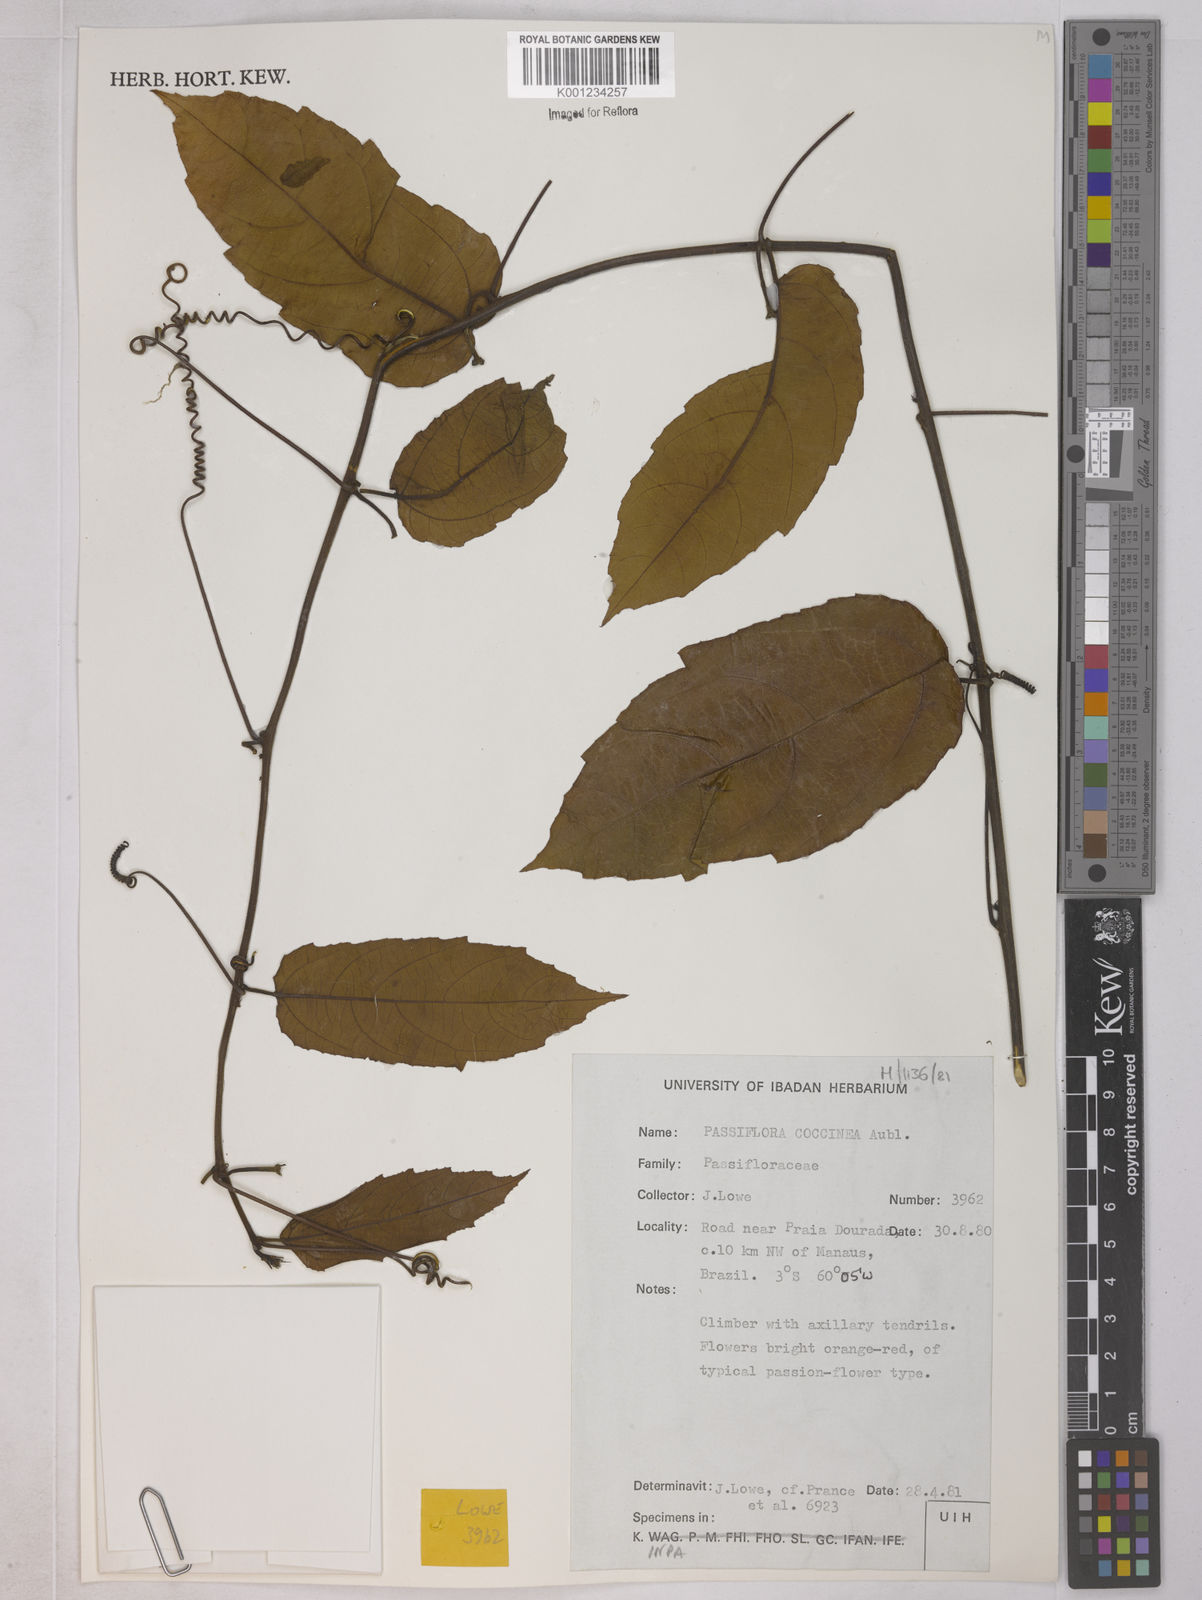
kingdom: Plantae
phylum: Tracheophyta
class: Magnoliopsida
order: Malpighiales
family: Passifloraceae
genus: Passiflora
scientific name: Passiflora coccinea
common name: Scarlet passionflower
